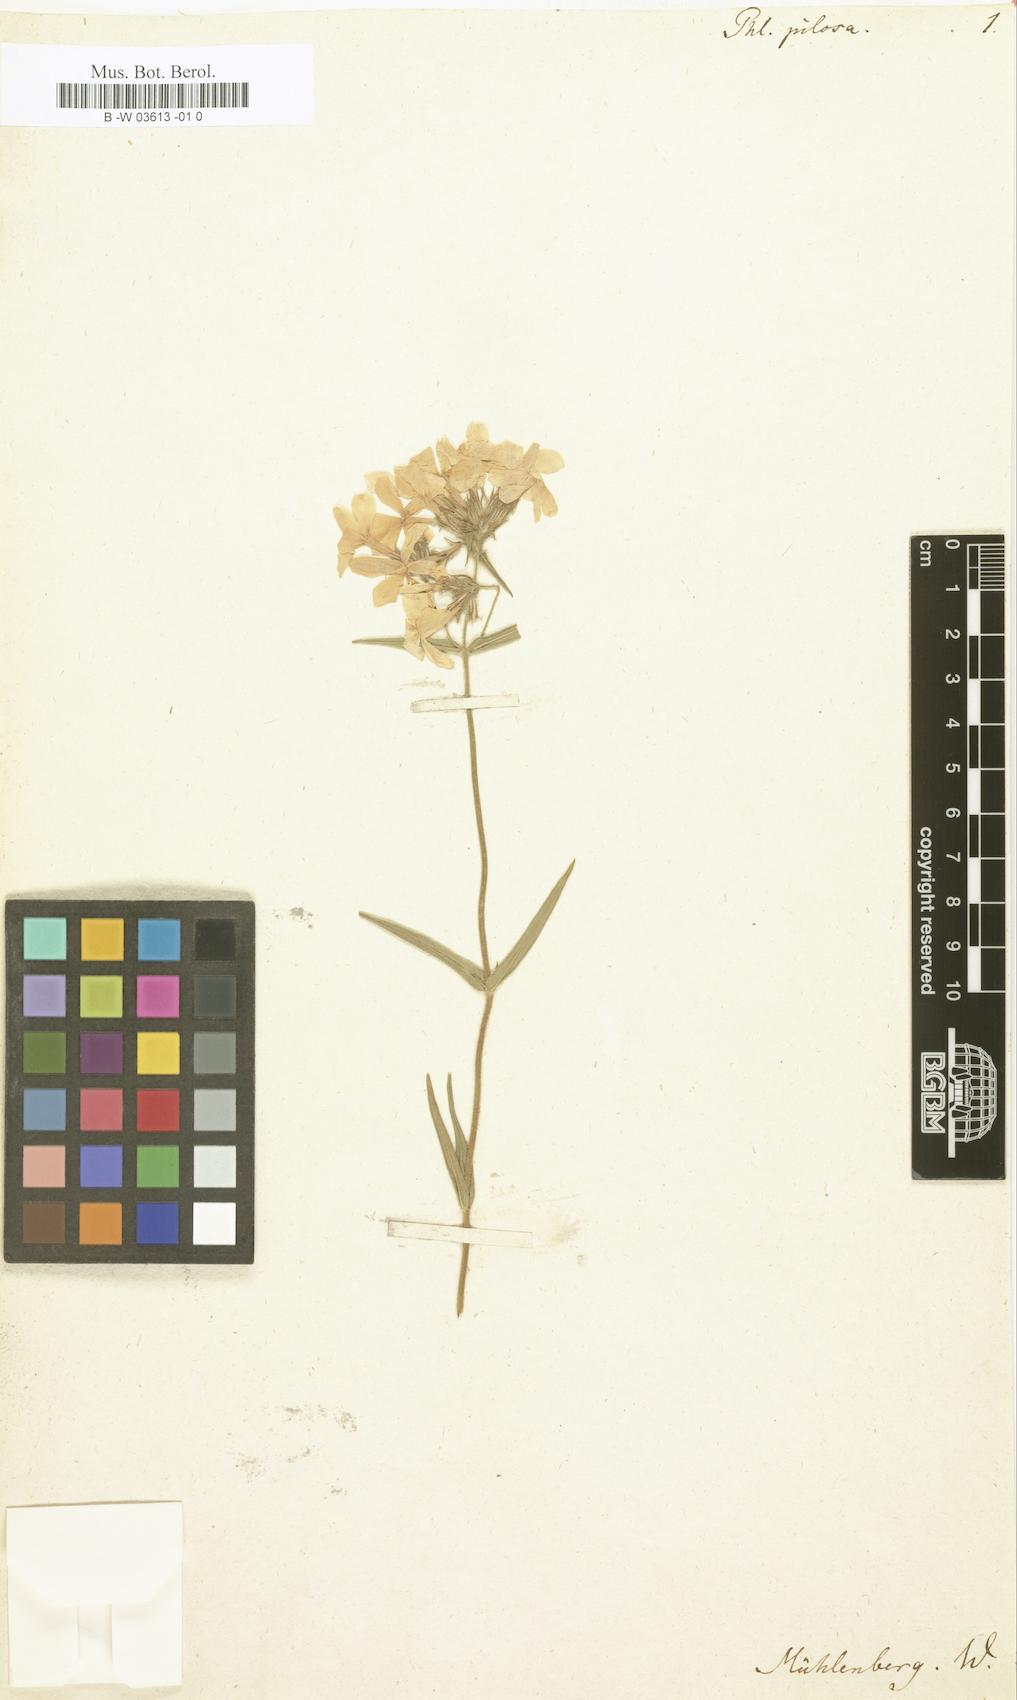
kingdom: Plantae
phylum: Tracheophyta
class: Magnoliopsida
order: Ericales
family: Polemoniaceae
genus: Phlox
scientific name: Phlox pilosa
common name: Prairie phlox
